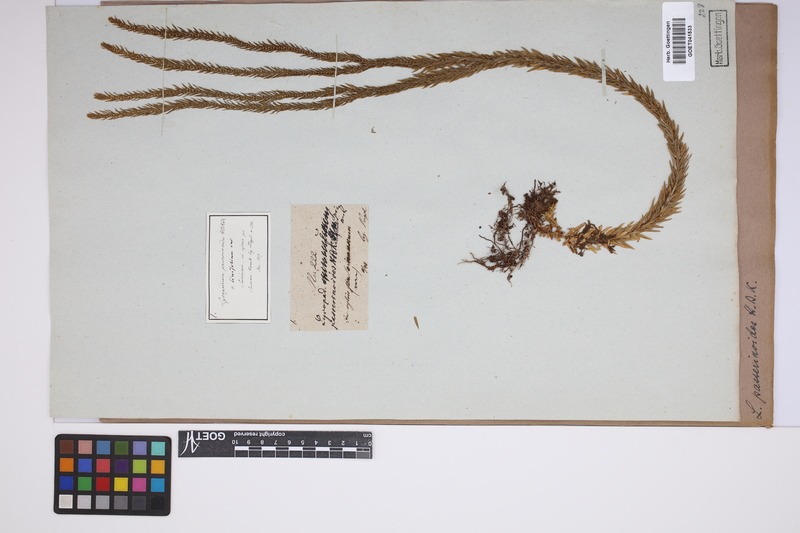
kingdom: Plantae
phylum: Tracheophyta
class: Lycopodiopsida
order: Lycopodiales
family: Lycopodiaceae
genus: Phlegmariurus
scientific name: Phlegmariurus taxifolius
